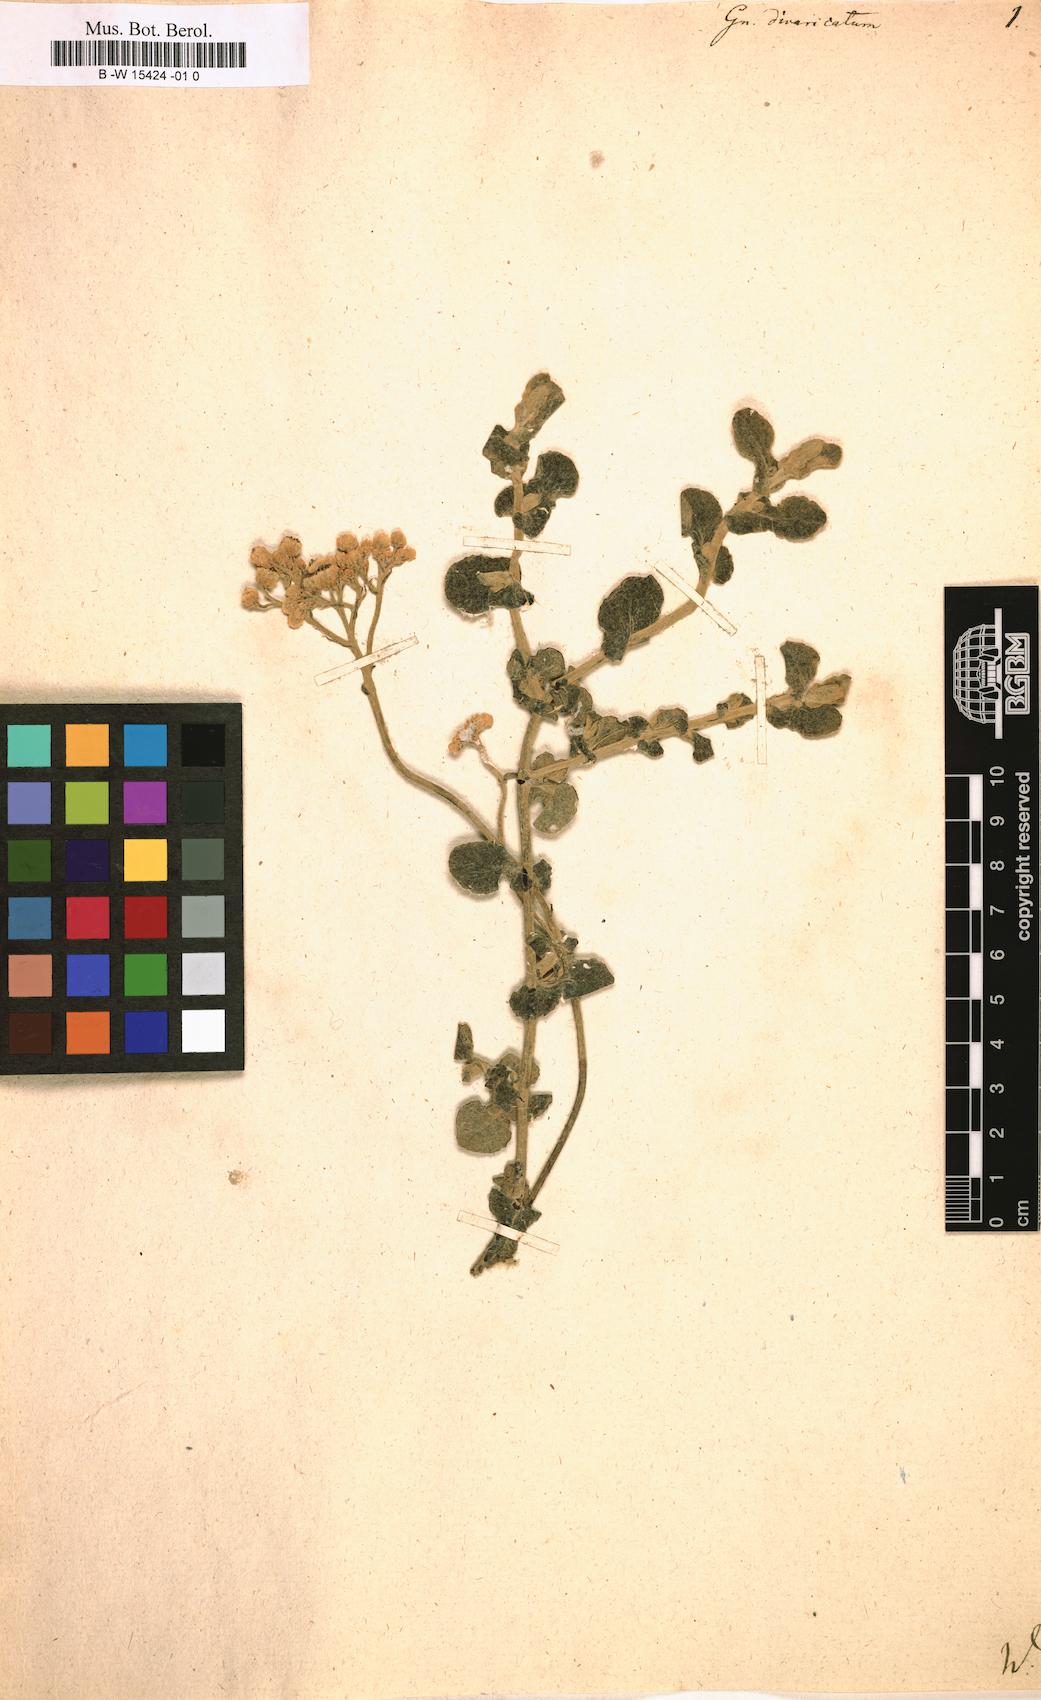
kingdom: Plantae
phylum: Tracheophyta
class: Magnoliopsida
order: Asterales
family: Asteraceae
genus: Helichrysum
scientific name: Helichrysum crispum
